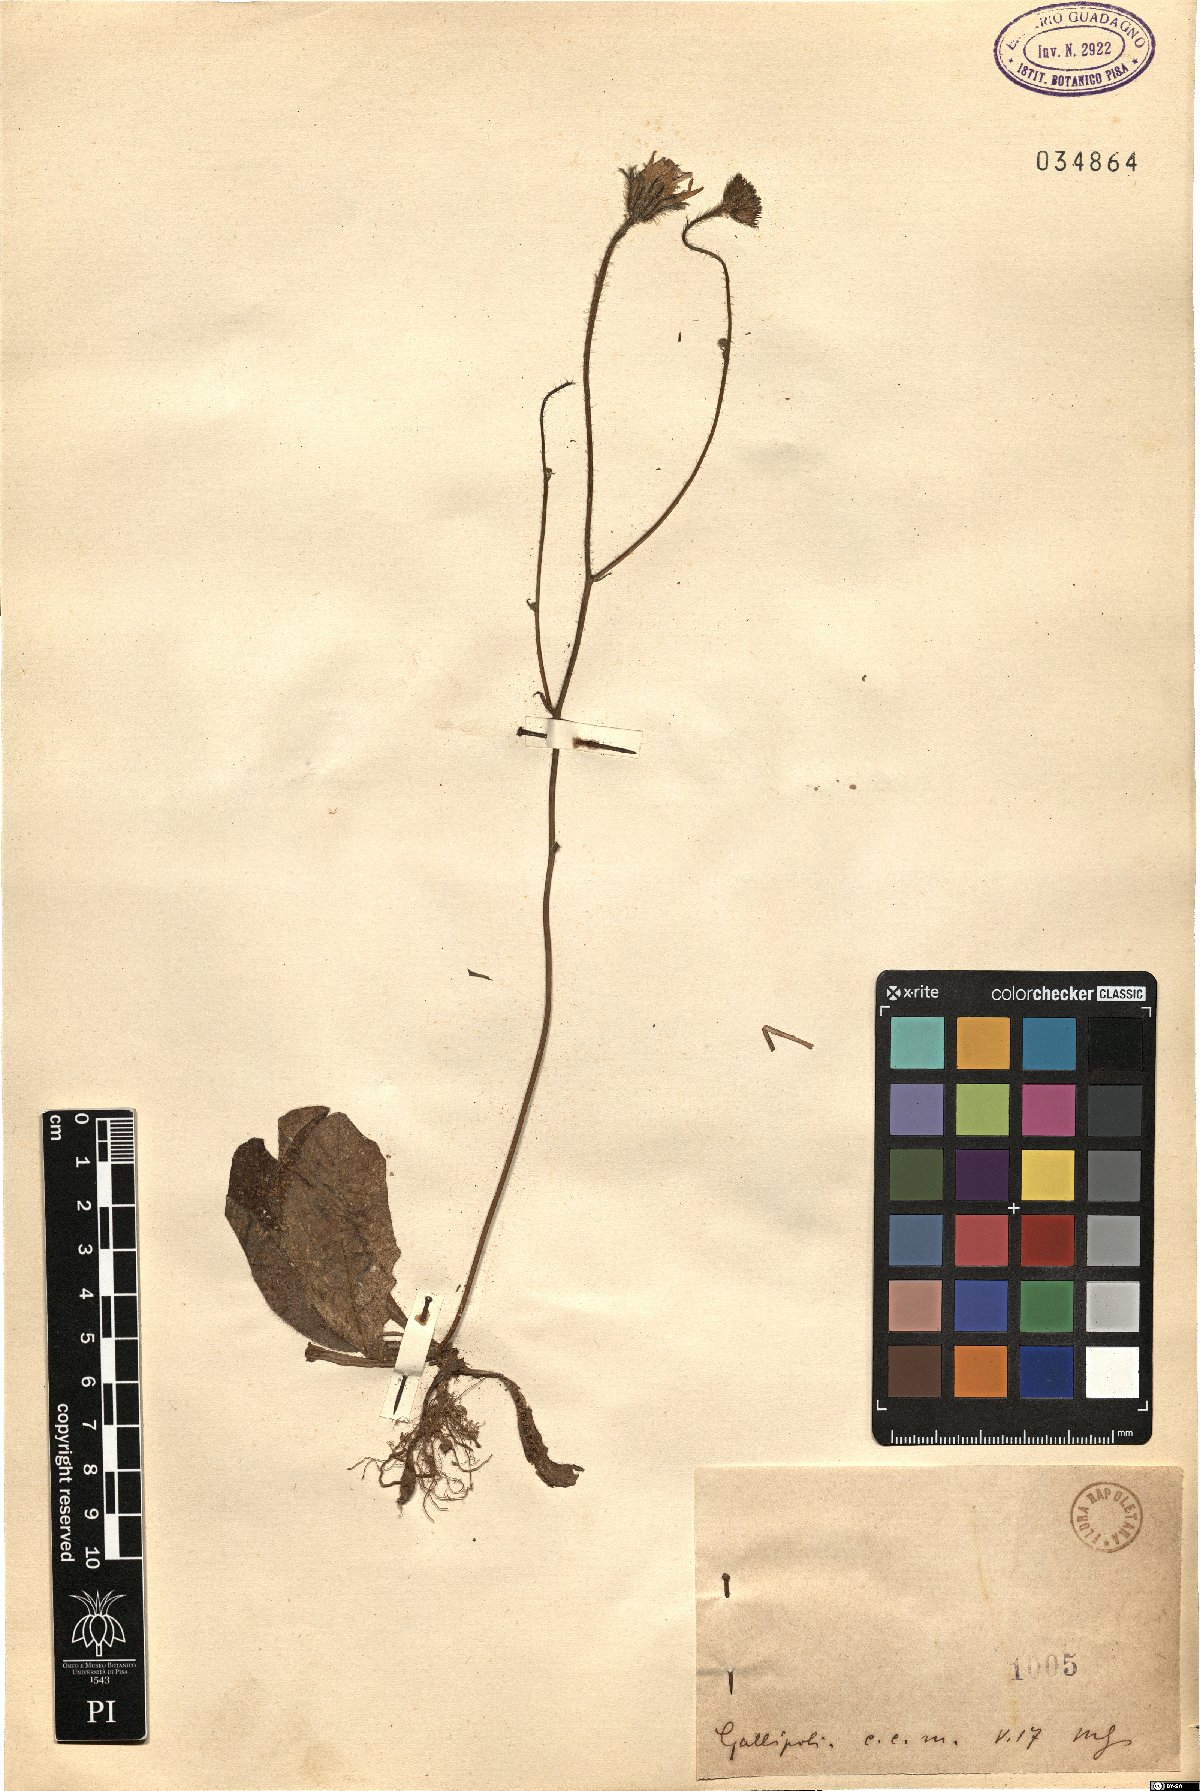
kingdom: Plantae
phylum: Tracheophyta
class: Magnoliopsida
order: Asterales
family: Asteraceae
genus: Hypochaeris
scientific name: Hypochaeris
